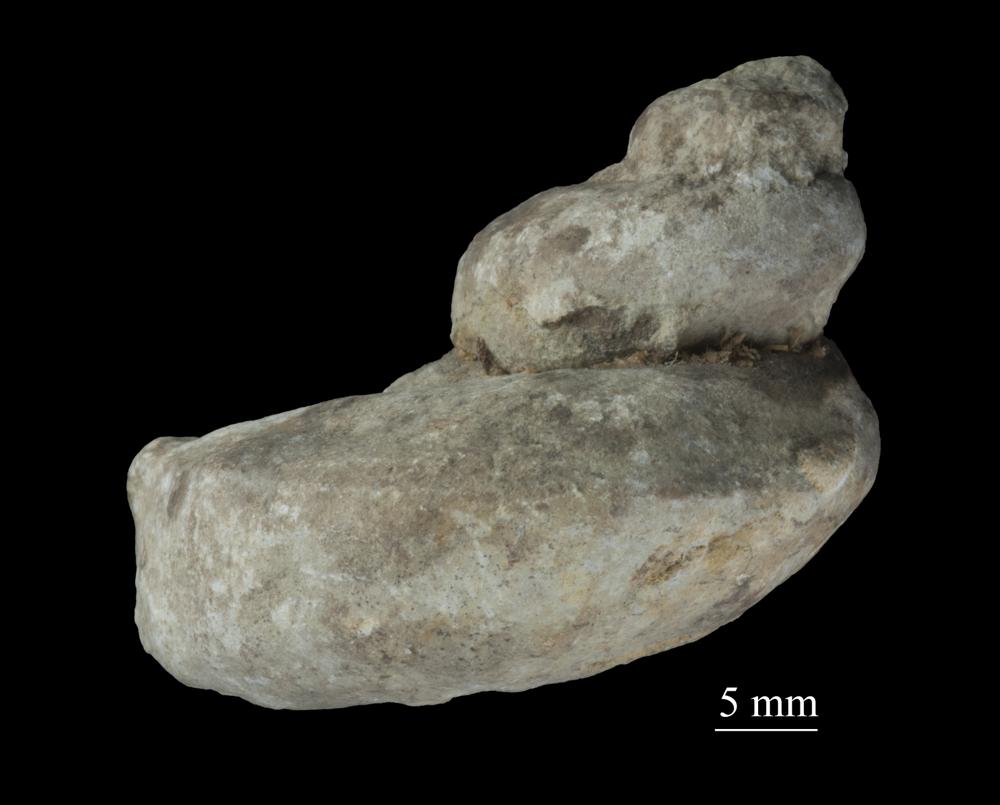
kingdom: Animalia
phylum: Mollusca
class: Gastropoda
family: Lophospiridae
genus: Ruedemannia
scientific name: Ruedemannia Worthenia borkholmiensis
